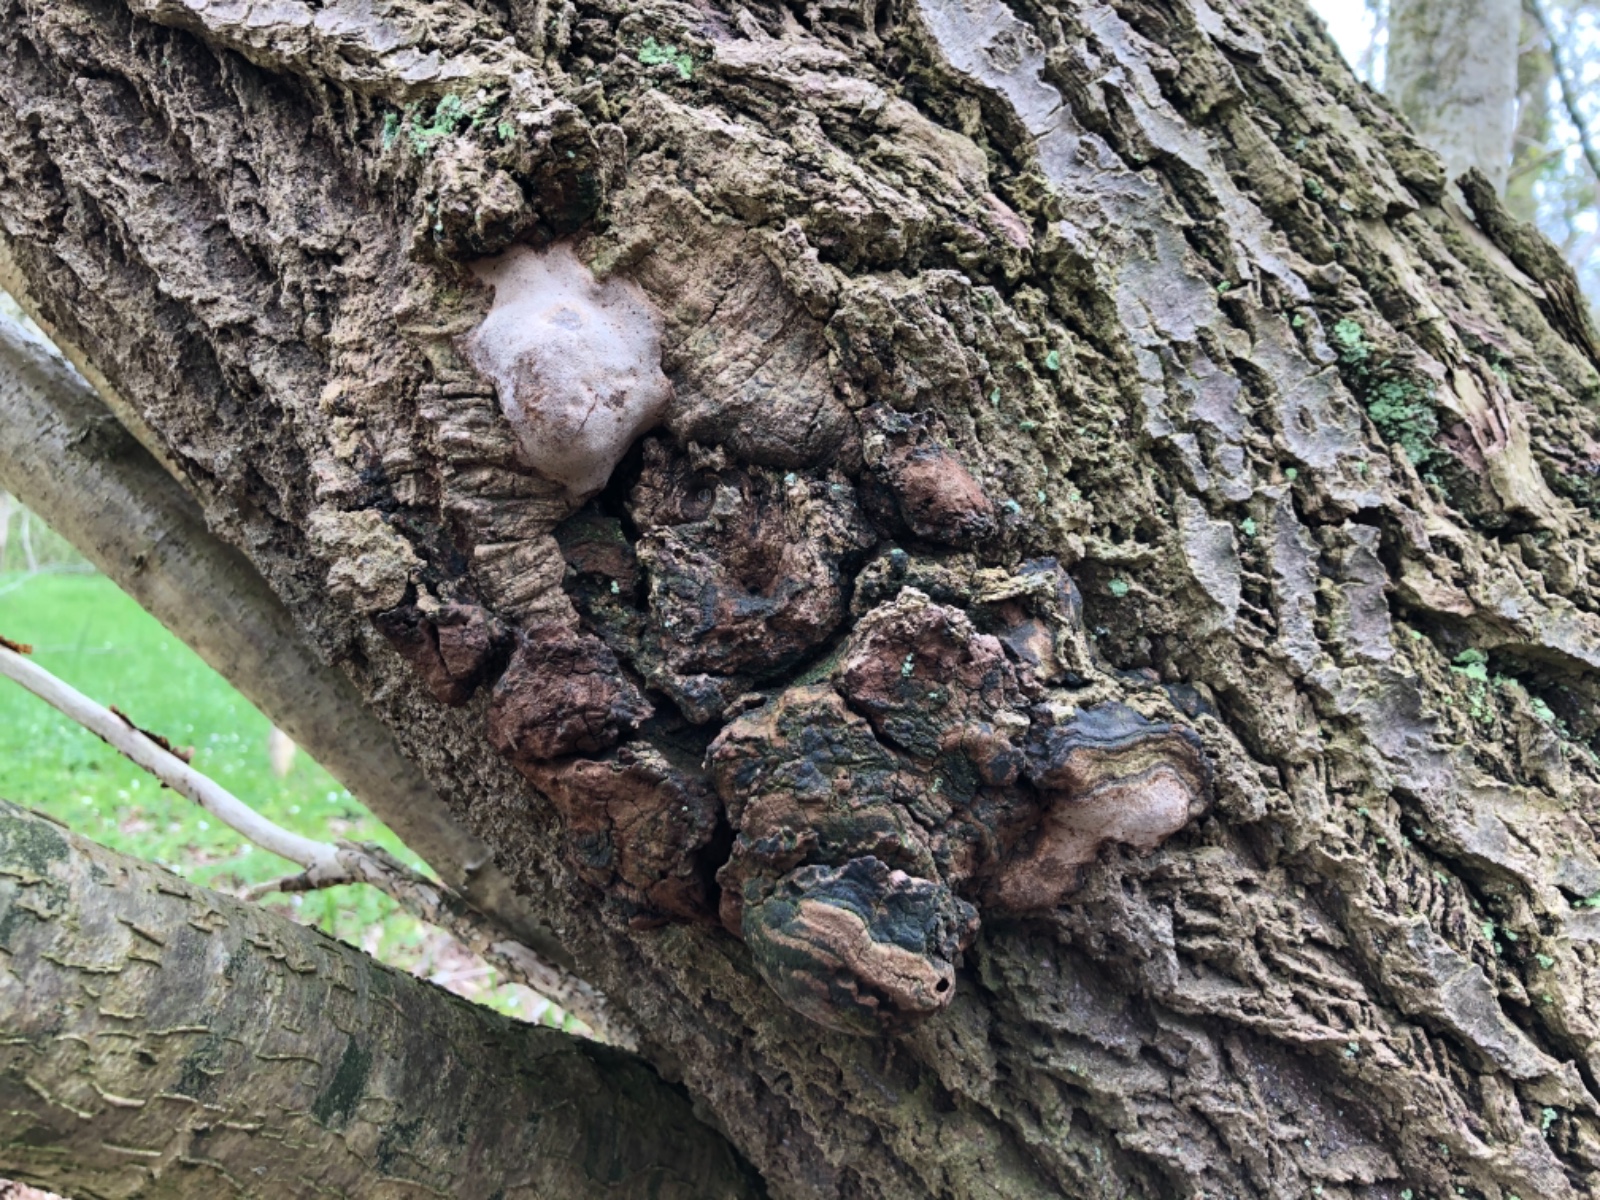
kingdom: Fungi
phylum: Basidiomycota
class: Agaricomycetes
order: Hymenochaetales
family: Hymenochaetaceae
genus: Phellinus
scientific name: Phellinus tremulae
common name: aspe-ildporesvamp
